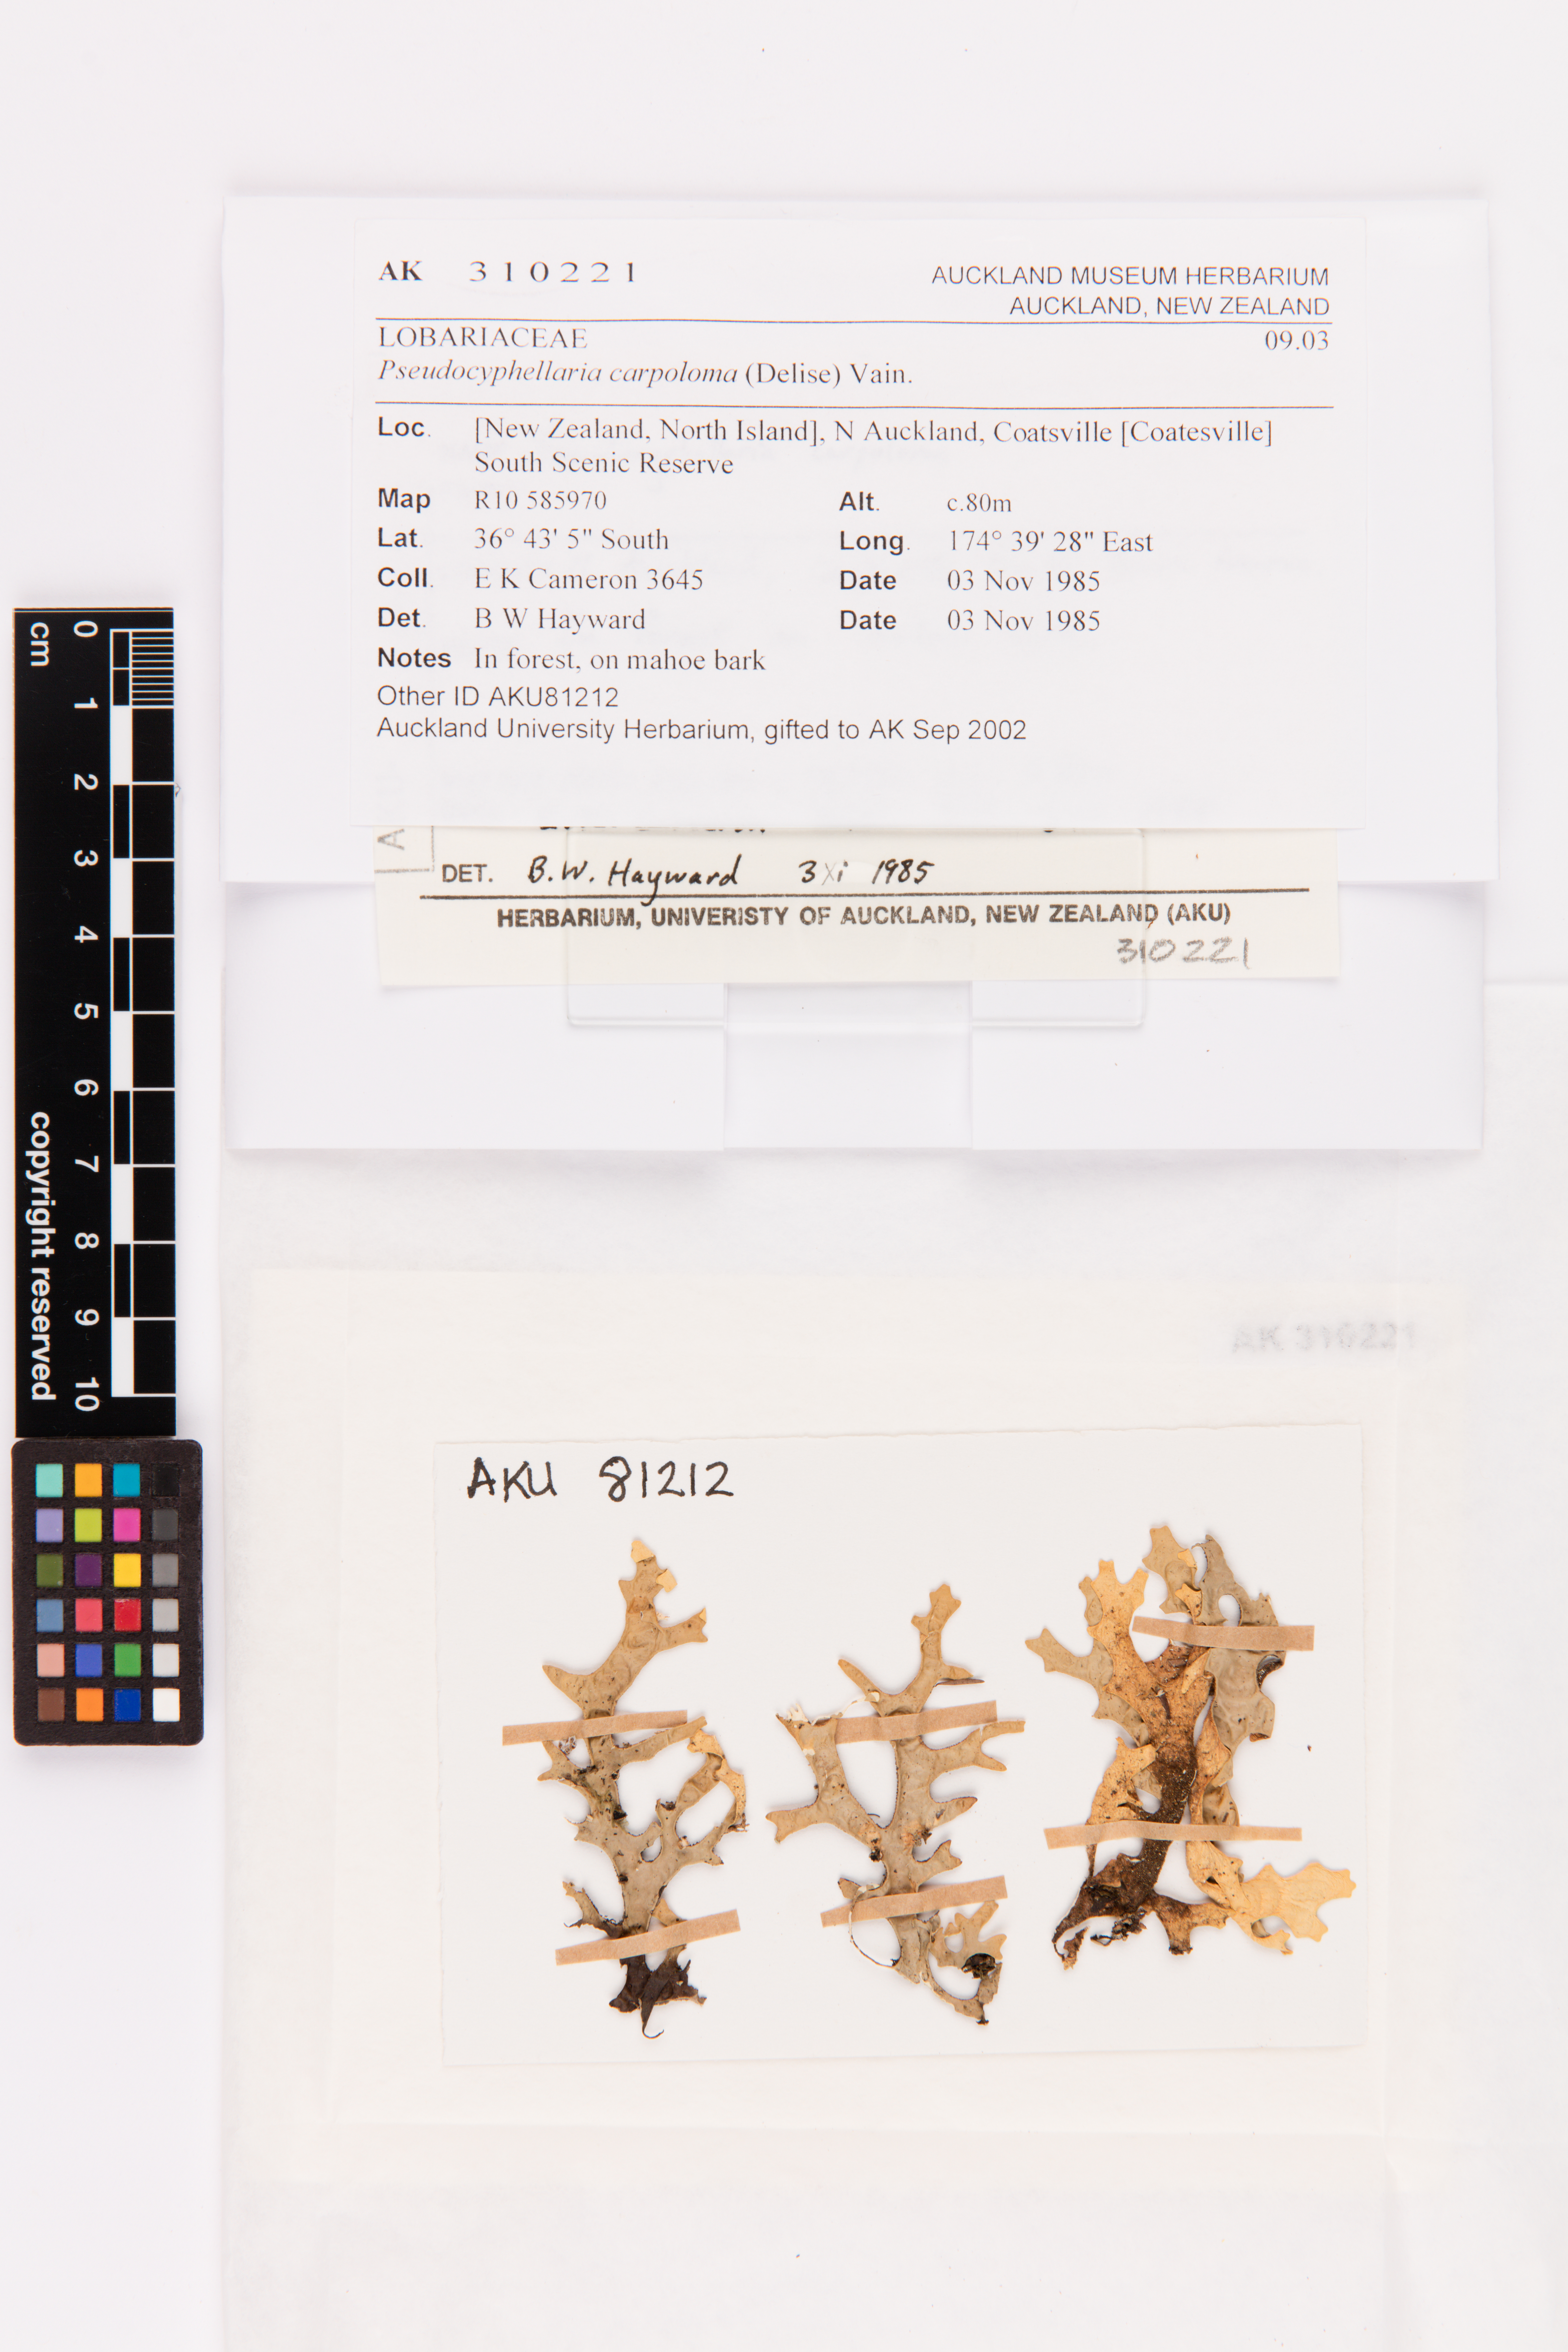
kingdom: Fungi
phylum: Ascomycota
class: Lecanoromycetes
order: Peltigerales
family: Lobariaceae
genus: Pseudocyphellaria
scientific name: Pseudocyphellaria carpoloma
